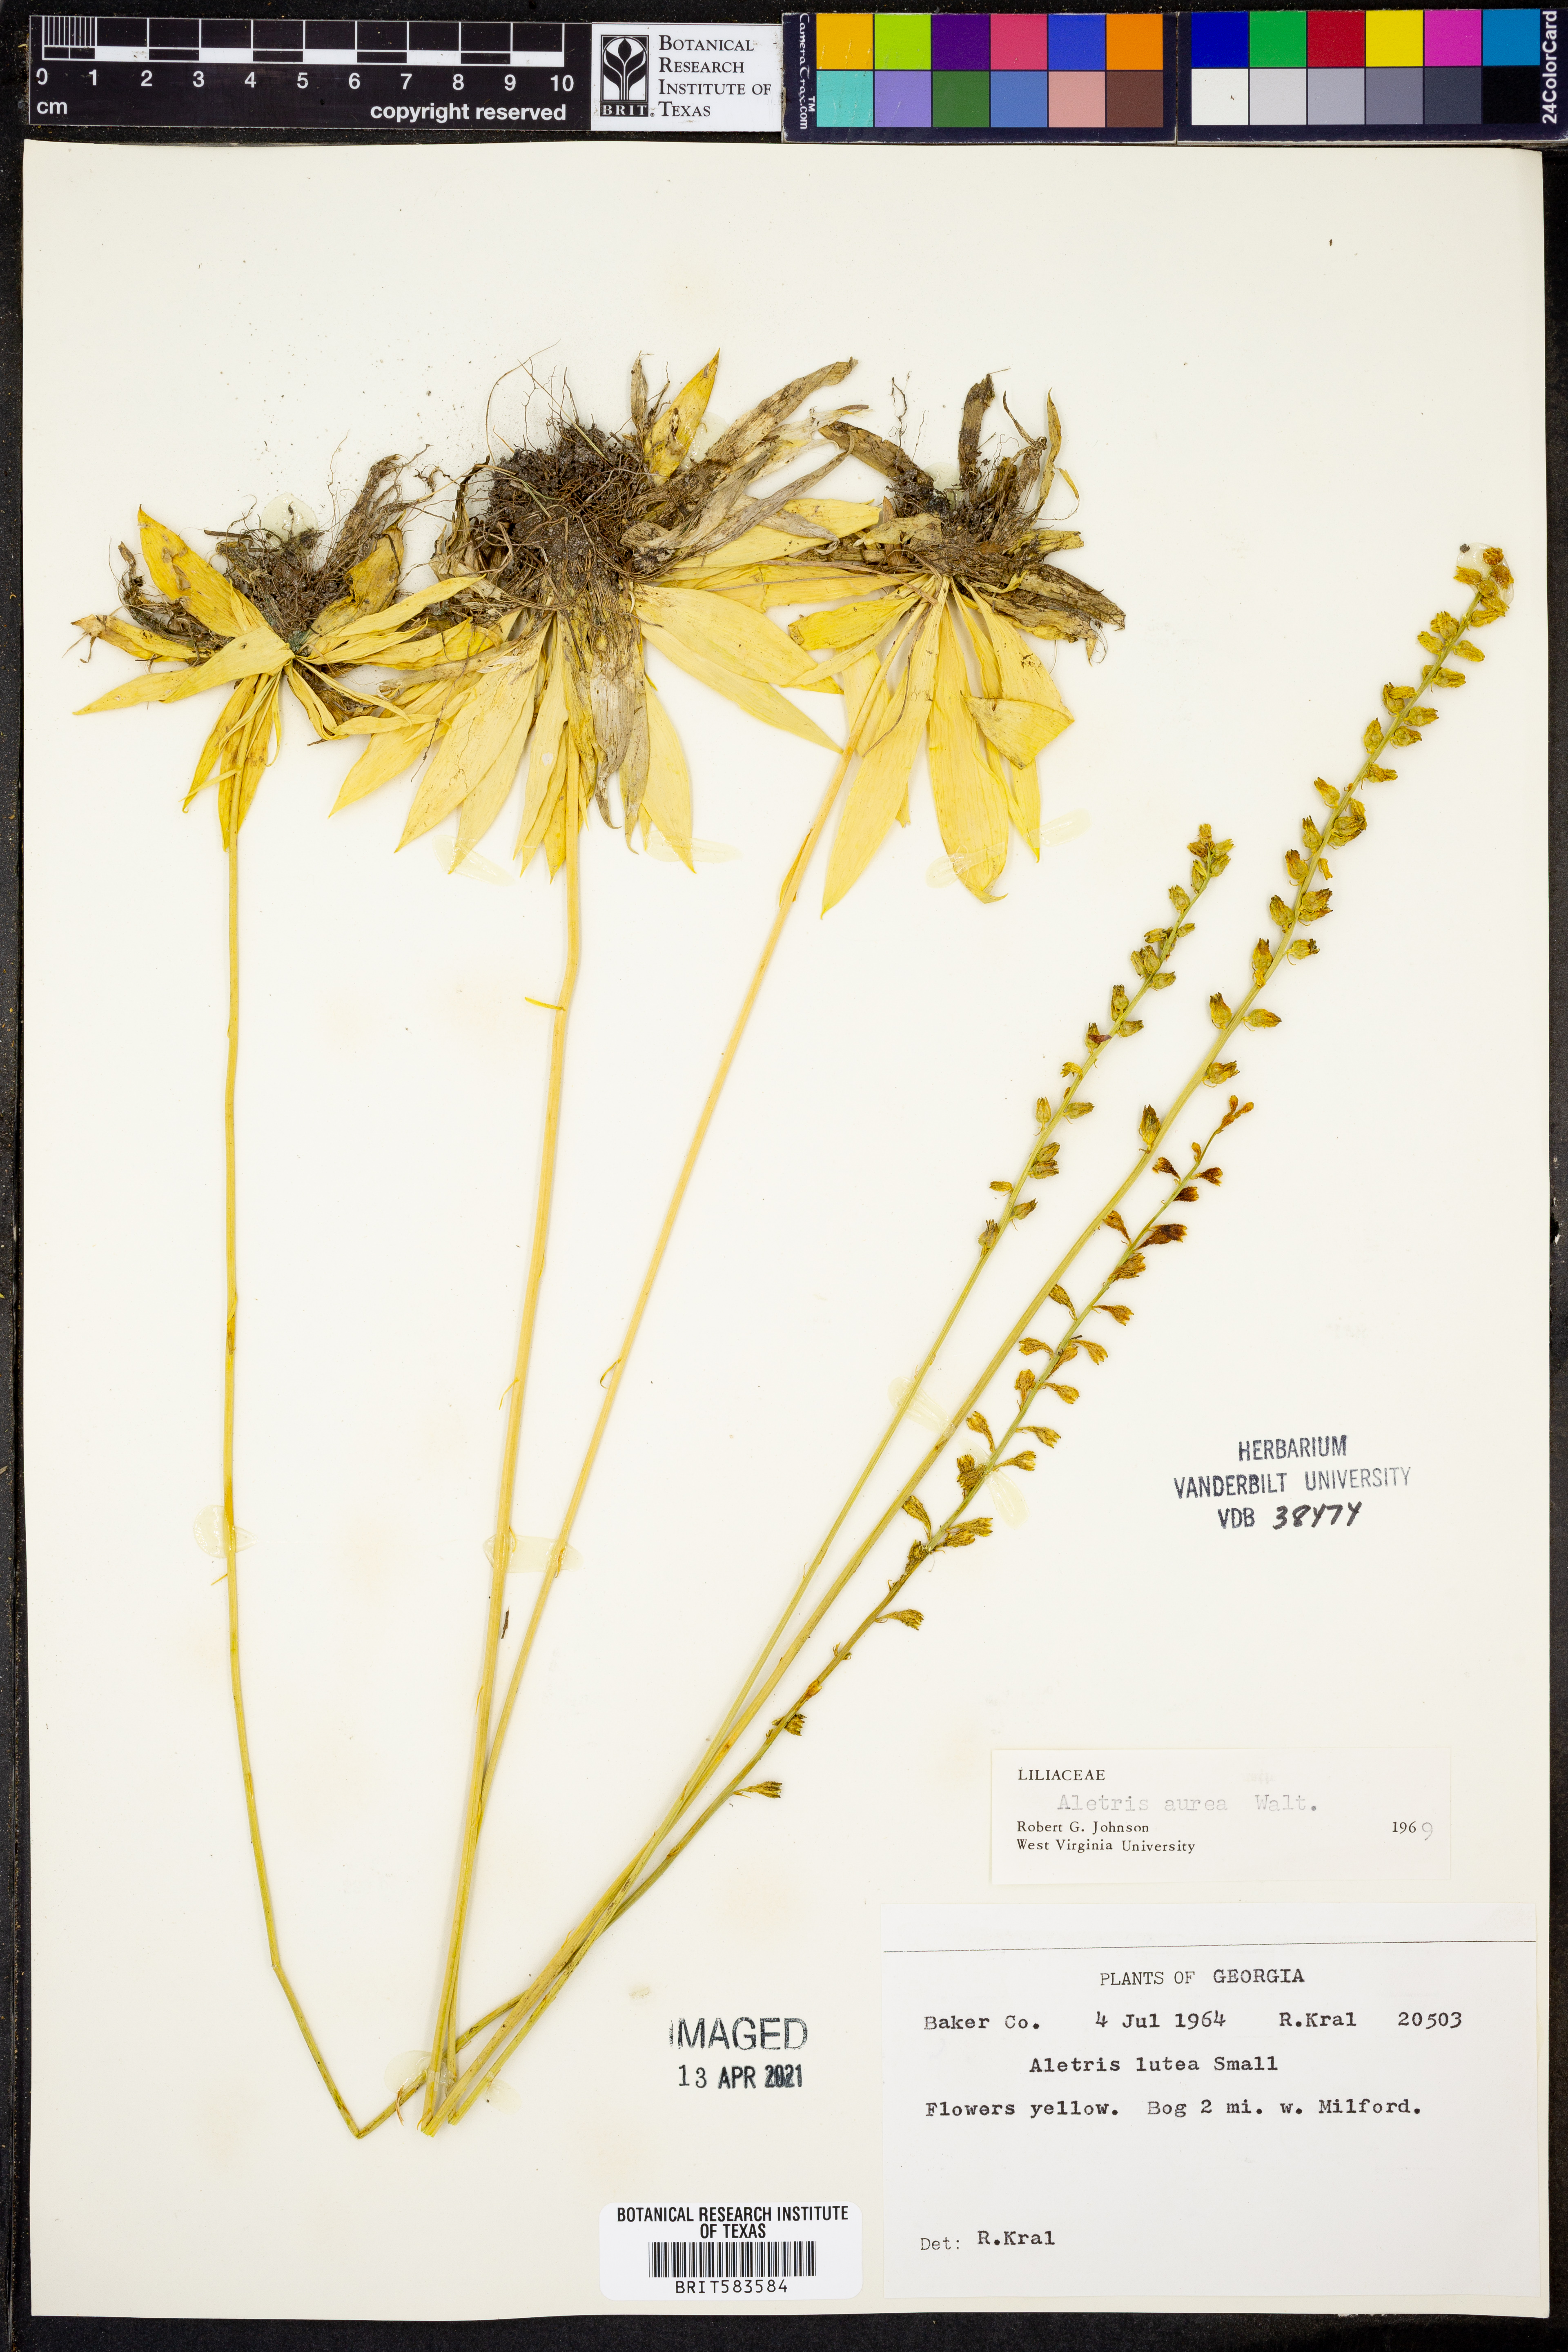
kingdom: Plantae
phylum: Tracheophyta
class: Liliopsida
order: Dioscoreales
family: Nartheciaceae
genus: Aletris
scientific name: Aletris aurea
